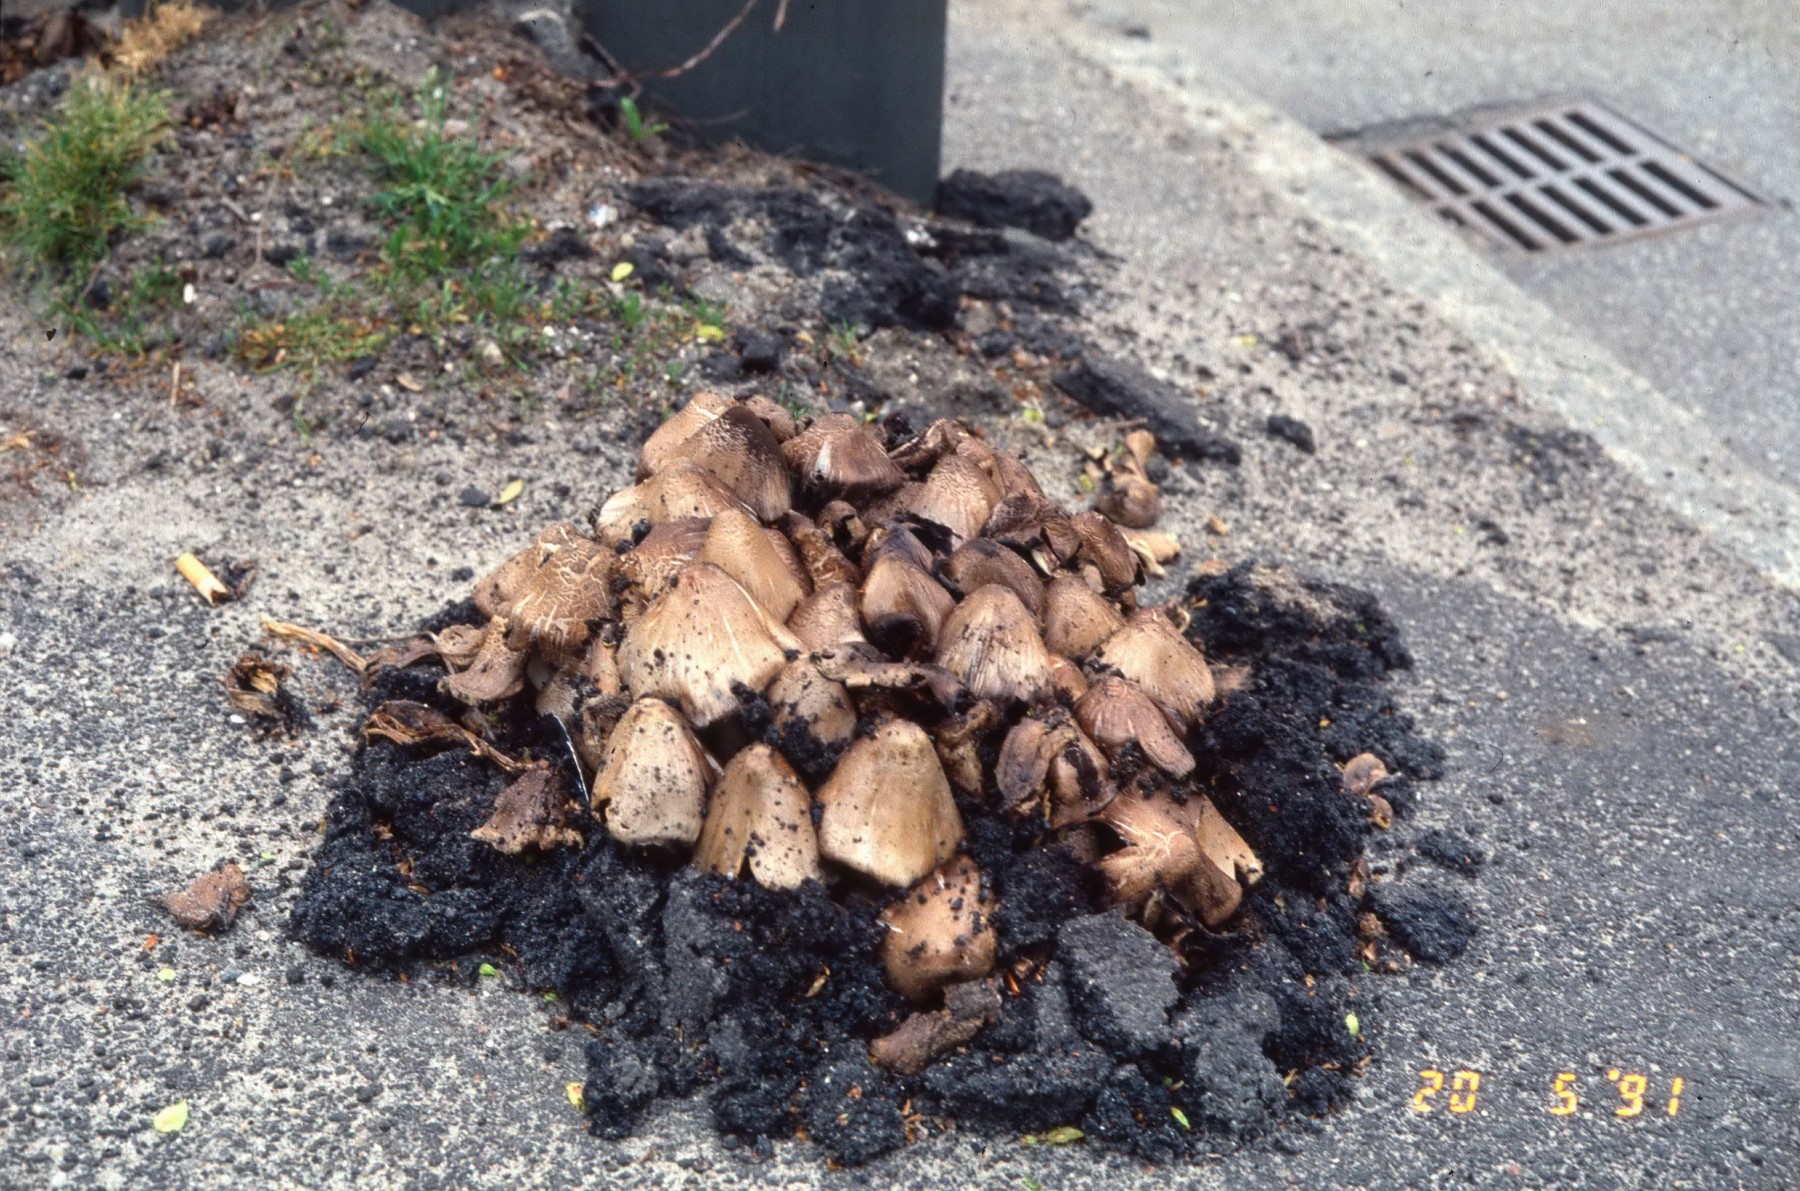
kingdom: Fungi
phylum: Basidiomycota
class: Agaricomycetes
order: Agaricales
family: Psathyrellaceae
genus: Coprinopsis
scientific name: Coprinopsis atramentaria
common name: almindelig blækhat
